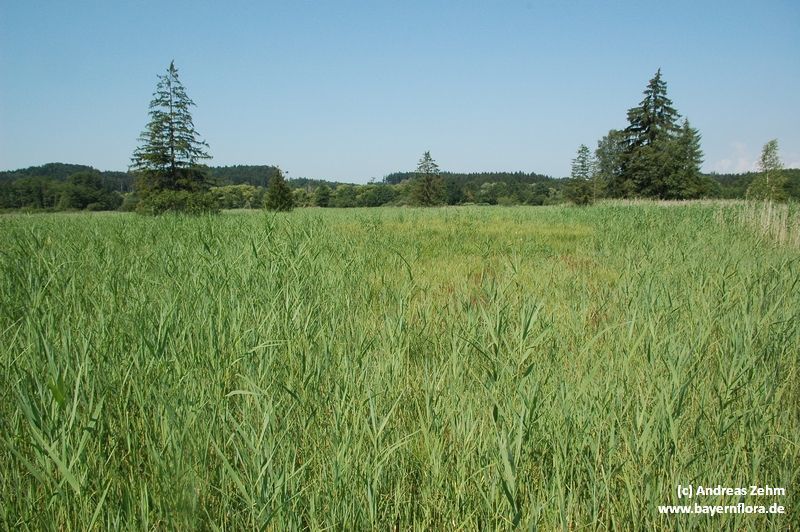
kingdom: Plantae
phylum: Tracheophyta
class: Liliopsida
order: Poales
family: Poaceae
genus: Phragmites
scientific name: Phragmites australis
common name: Common reed
